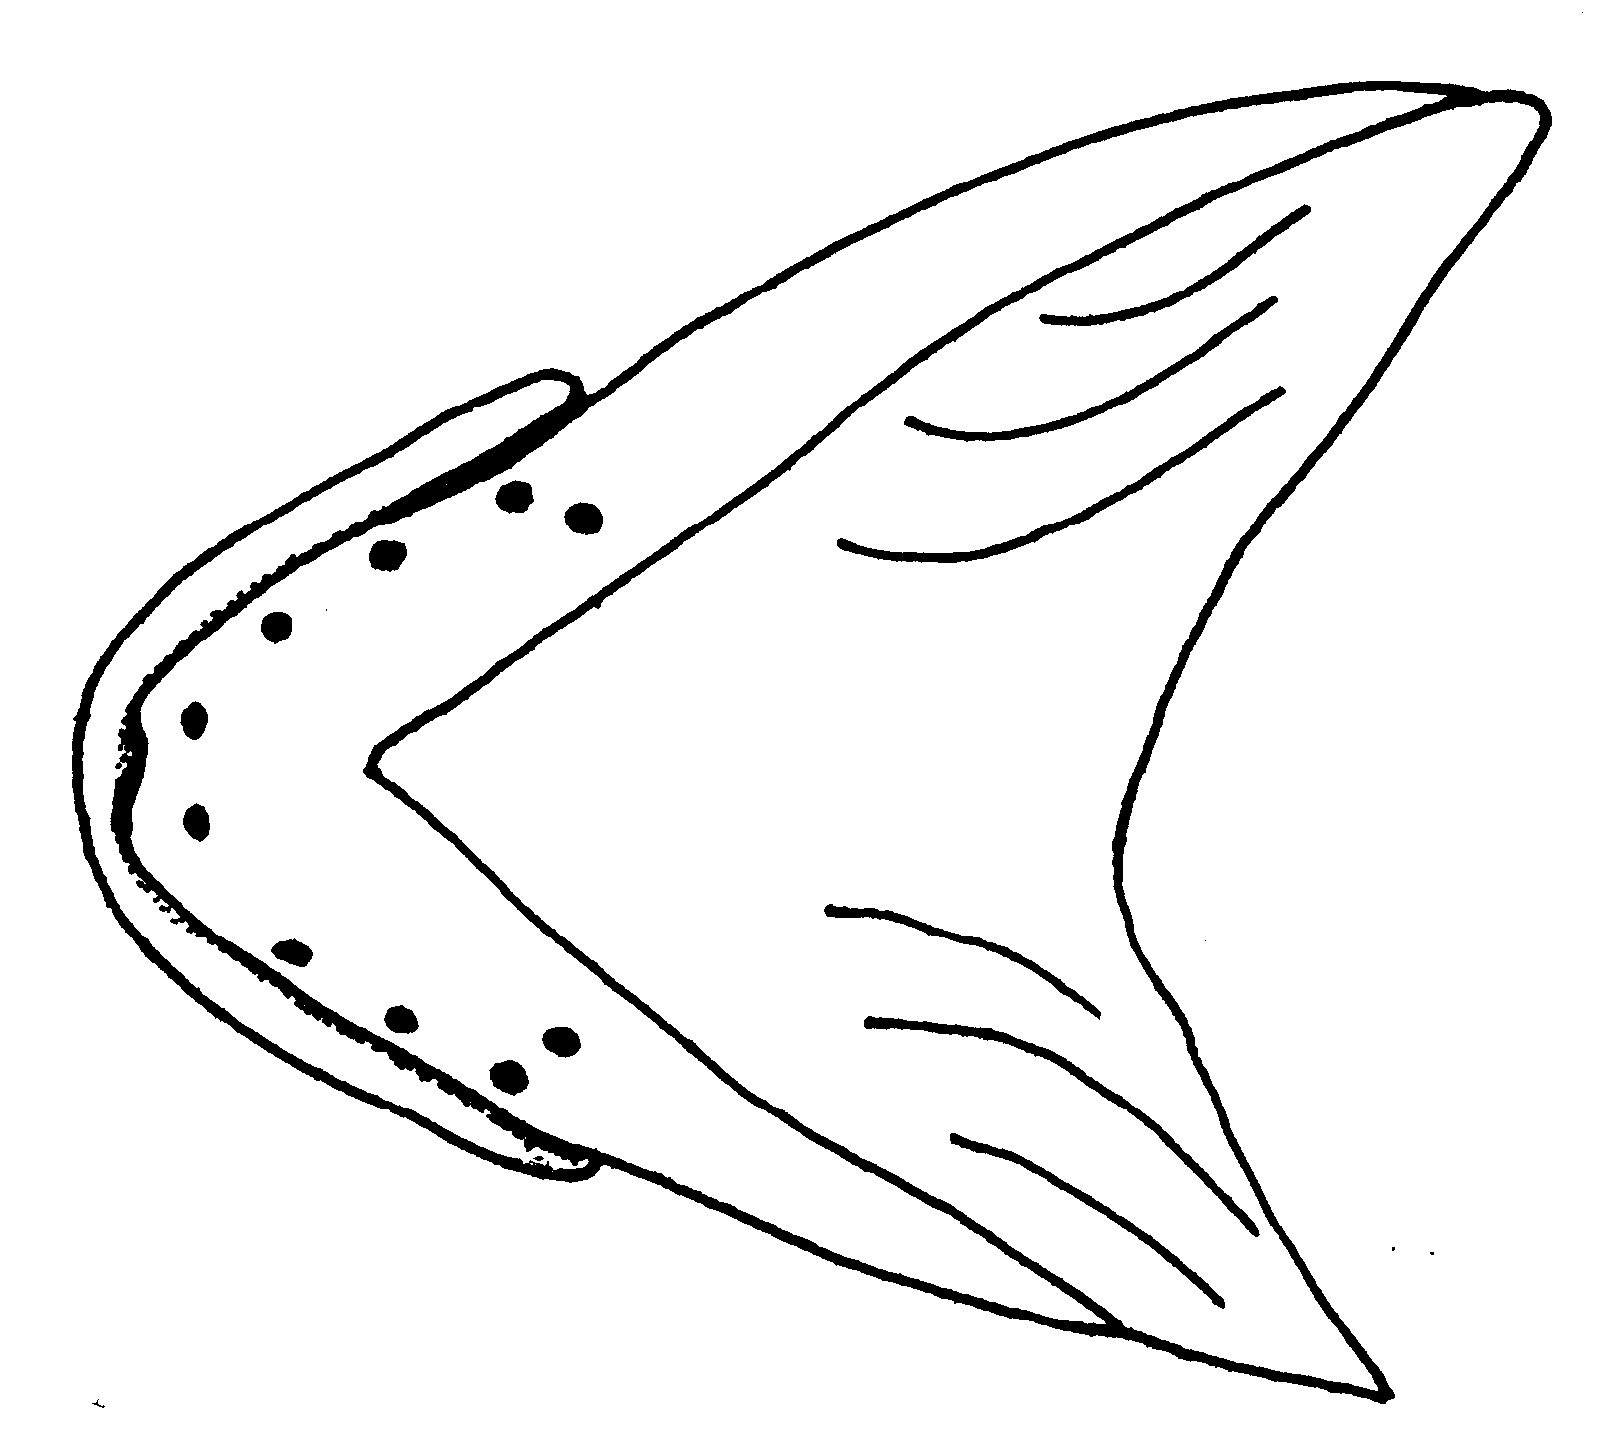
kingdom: Animalia
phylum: Chordata
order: Perciformes
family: Clinidae
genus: Clinus
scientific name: Clinus latipennis
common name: False bay klipfish
